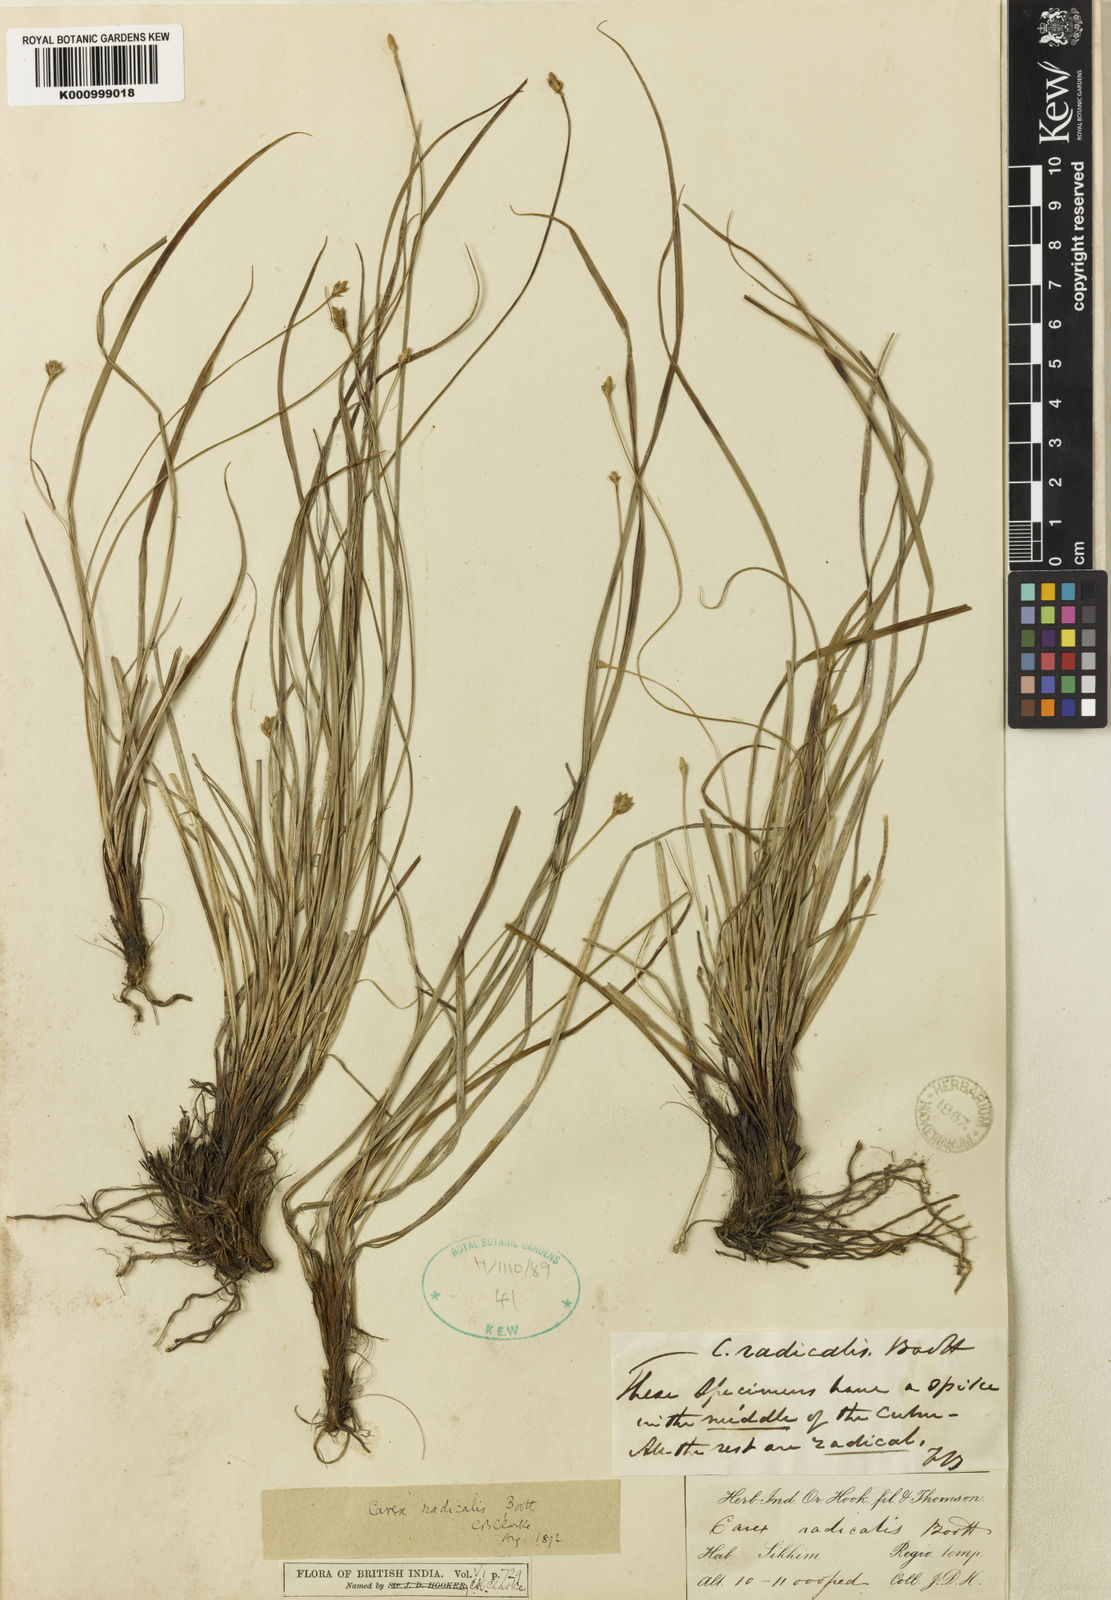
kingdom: Plantae
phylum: Tracheophyta
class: Liliopsida
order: Poales
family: Cyperaceae
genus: Carex
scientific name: Carex radicalis
